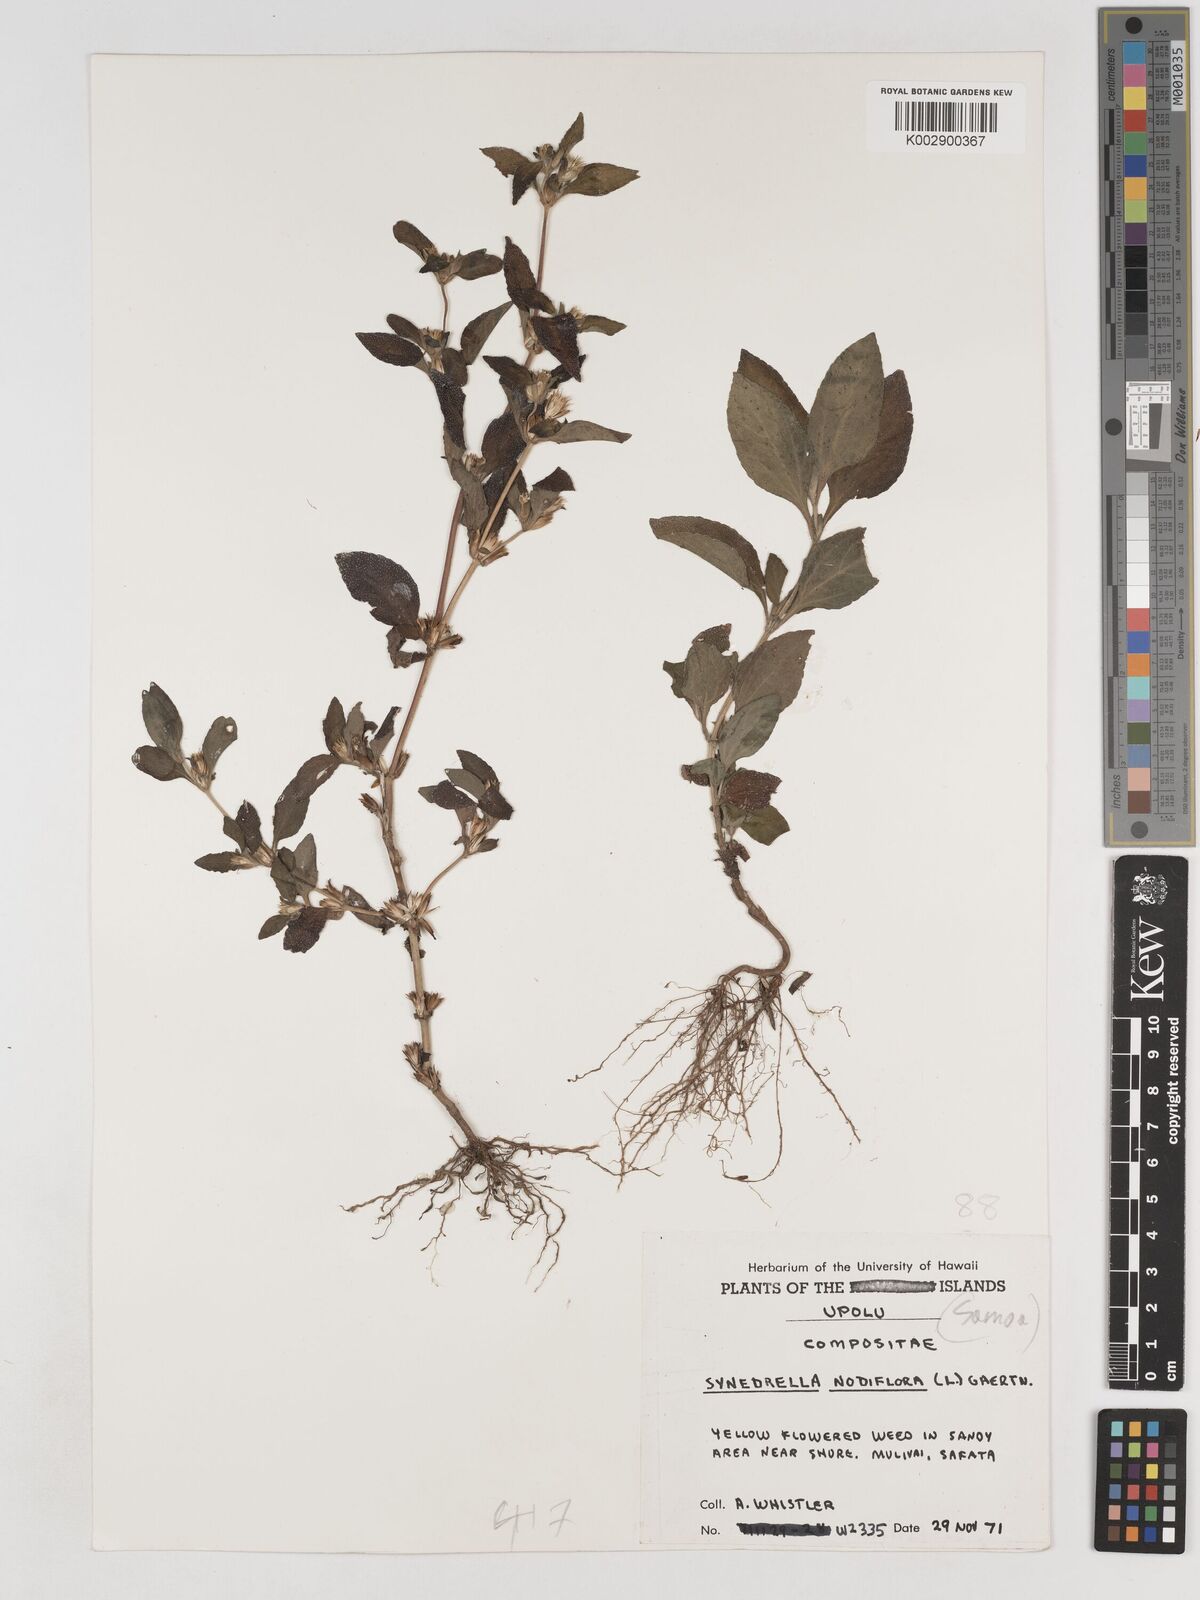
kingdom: Plantae
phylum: Tracheophyta
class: Magnoliopsida
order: Asterales
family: Asteraceae
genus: Synedrella
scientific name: Synedrella nodiflora
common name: Nodeweed
